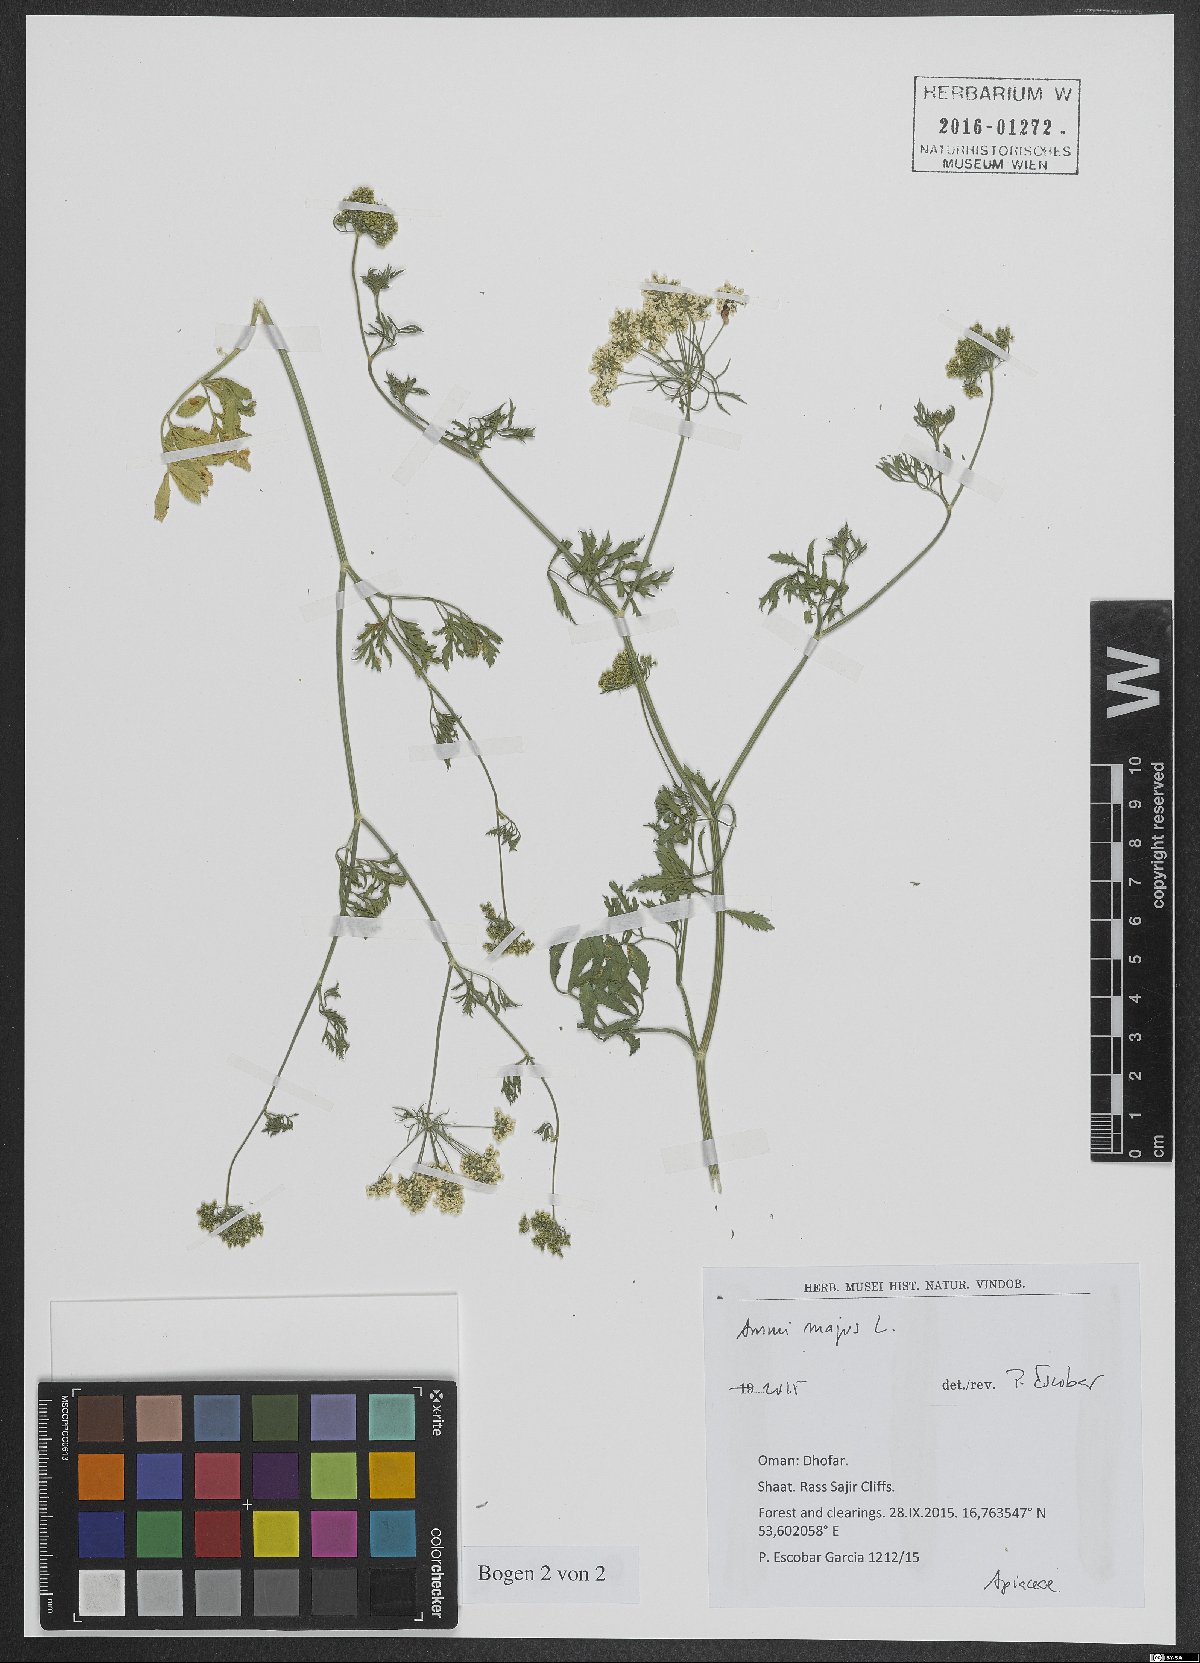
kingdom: Plantae
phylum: Tracheophyta
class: Magnoliopsida
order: Apiales
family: Apiaceae
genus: Ammi
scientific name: Ammi majus
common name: Bullwort
